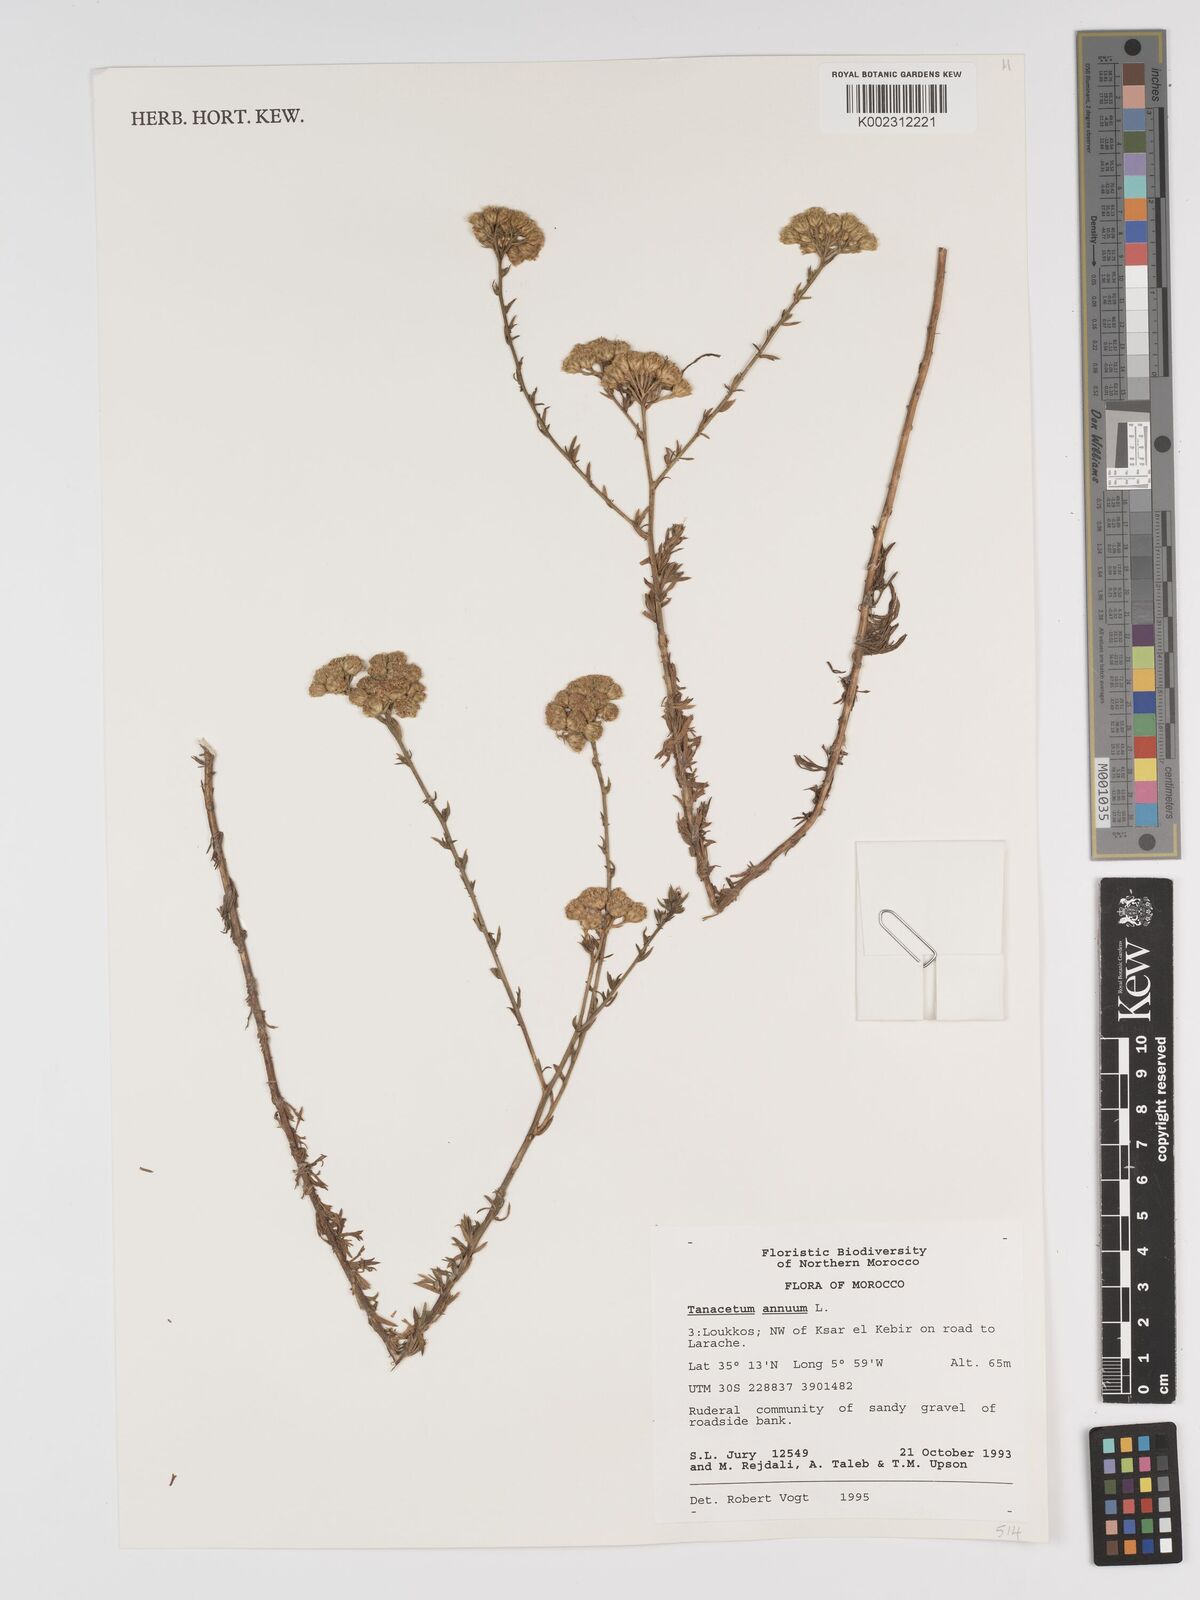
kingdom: Plantae
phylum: Tracheophyta
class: Magnoliopsida
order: Asterales
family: Asteraceae
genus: Vogtia
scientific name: Vogtia annua
